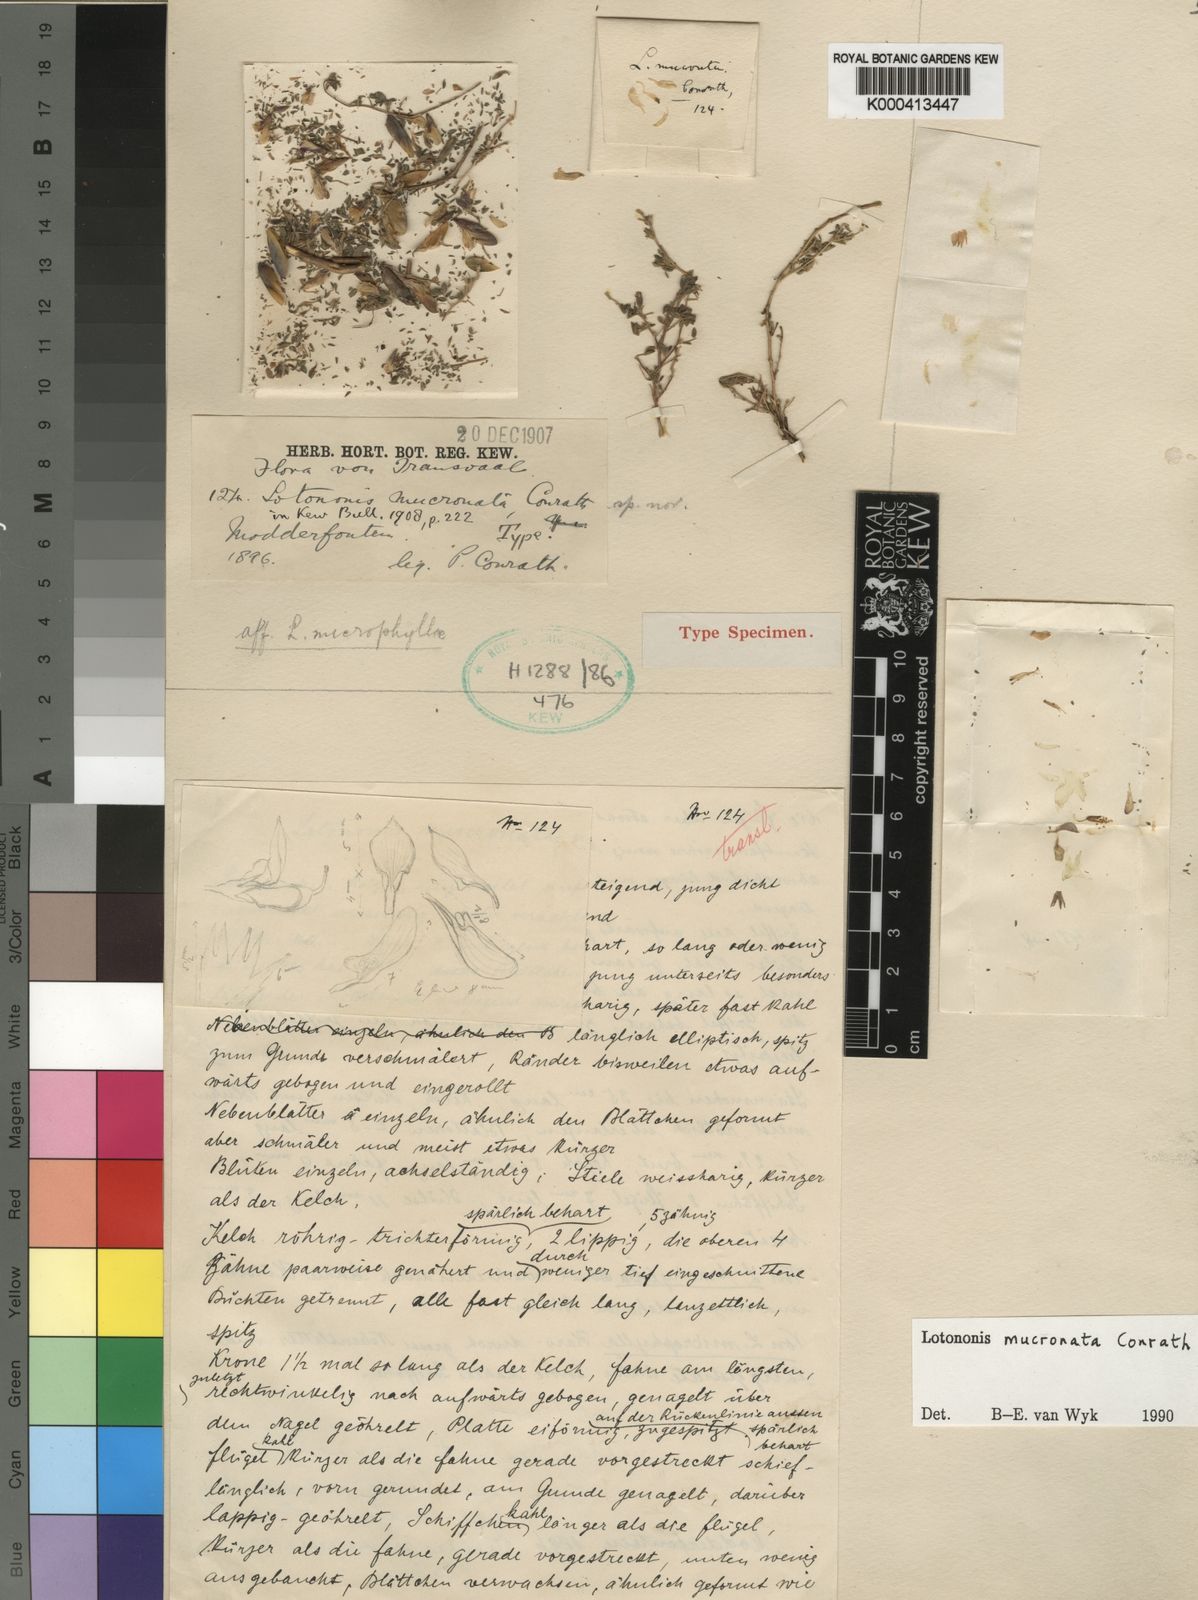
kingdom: Plantae
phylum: Tracheophyta
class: Magnoliopsida
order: Fabales
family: Fabaceae
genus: Leobordea
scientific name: Leobordea mucronata
